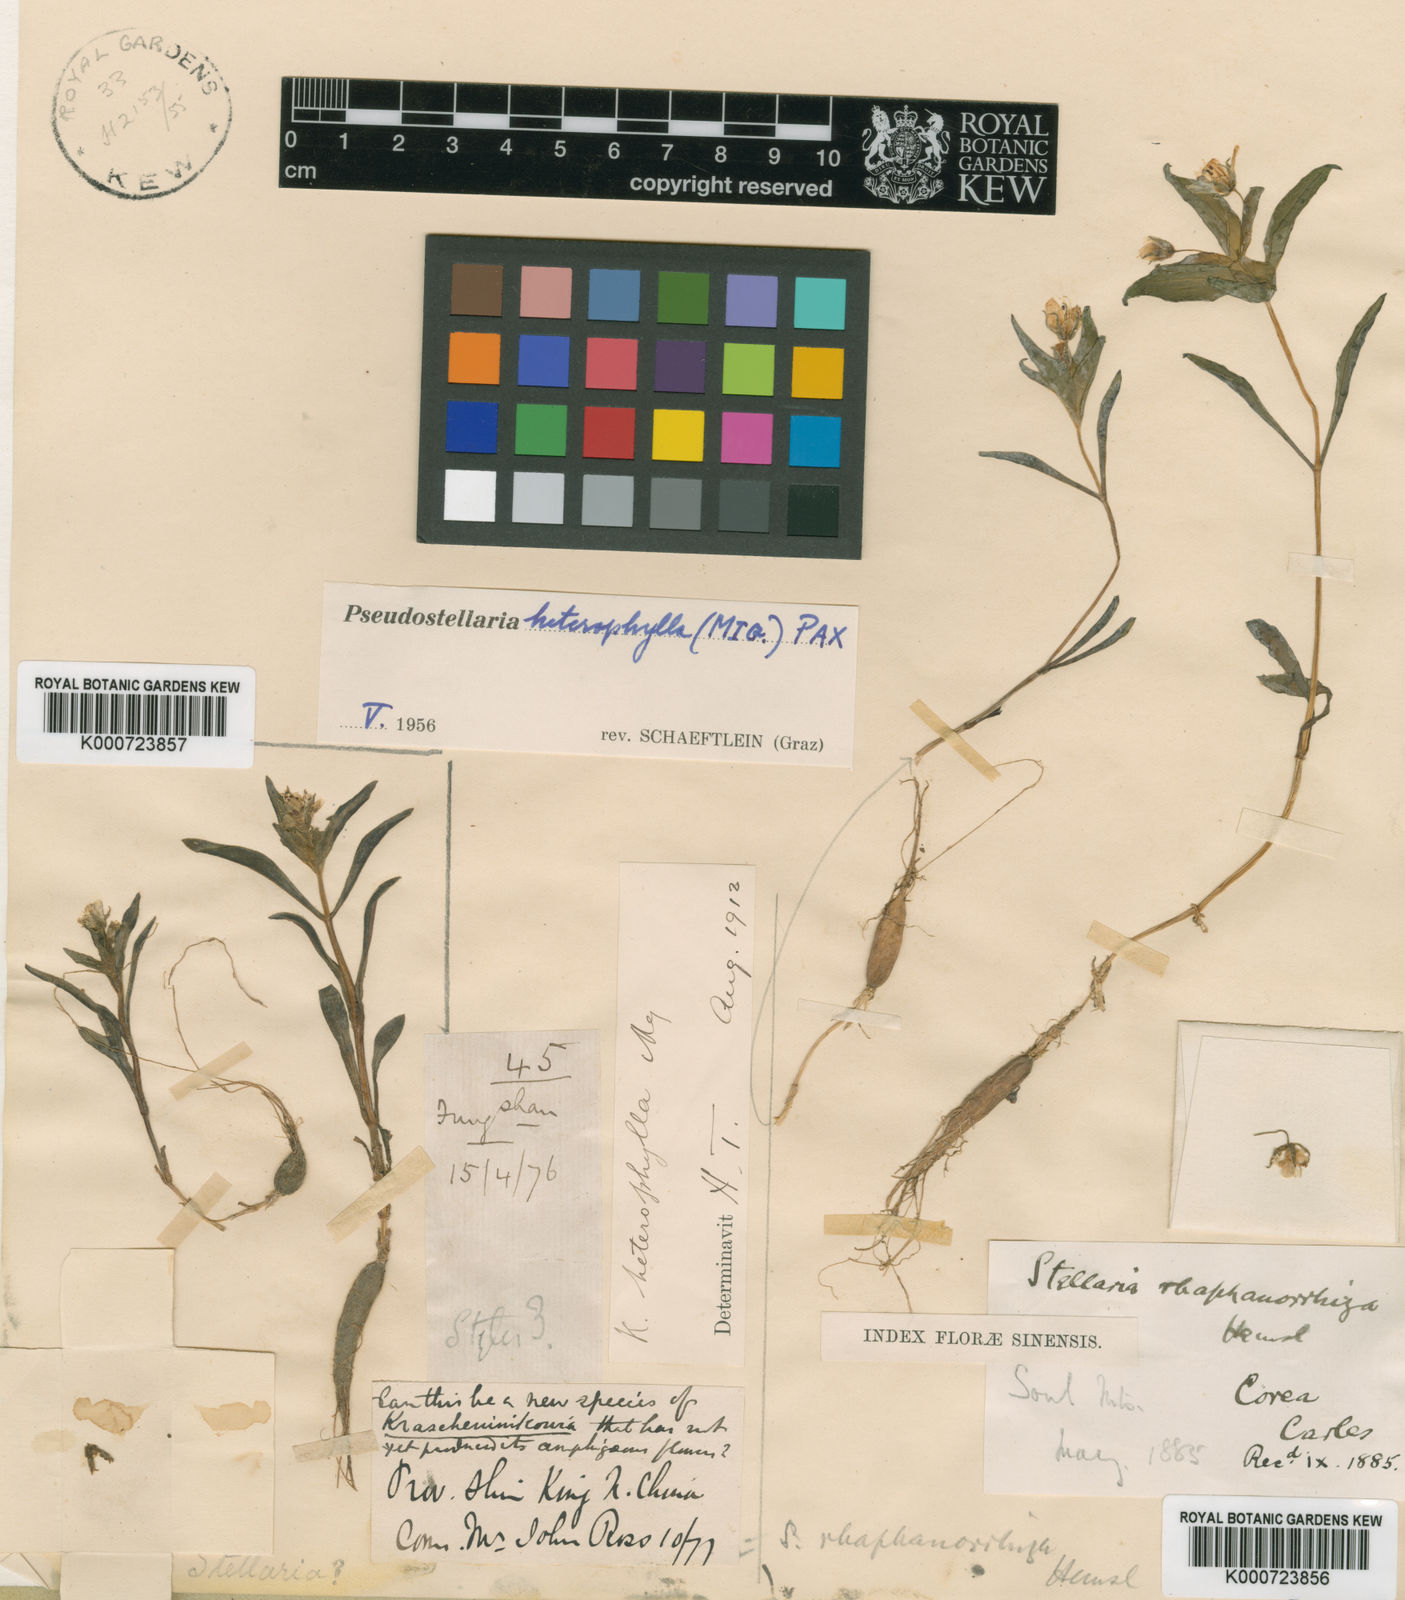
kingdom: Plantae
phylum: Tracheophyta
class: Magnoliopsida
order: Caryophyllales
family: Caryophyllaceae
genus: Pseudostellaria
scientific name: Pseudostellaria heterophylla
